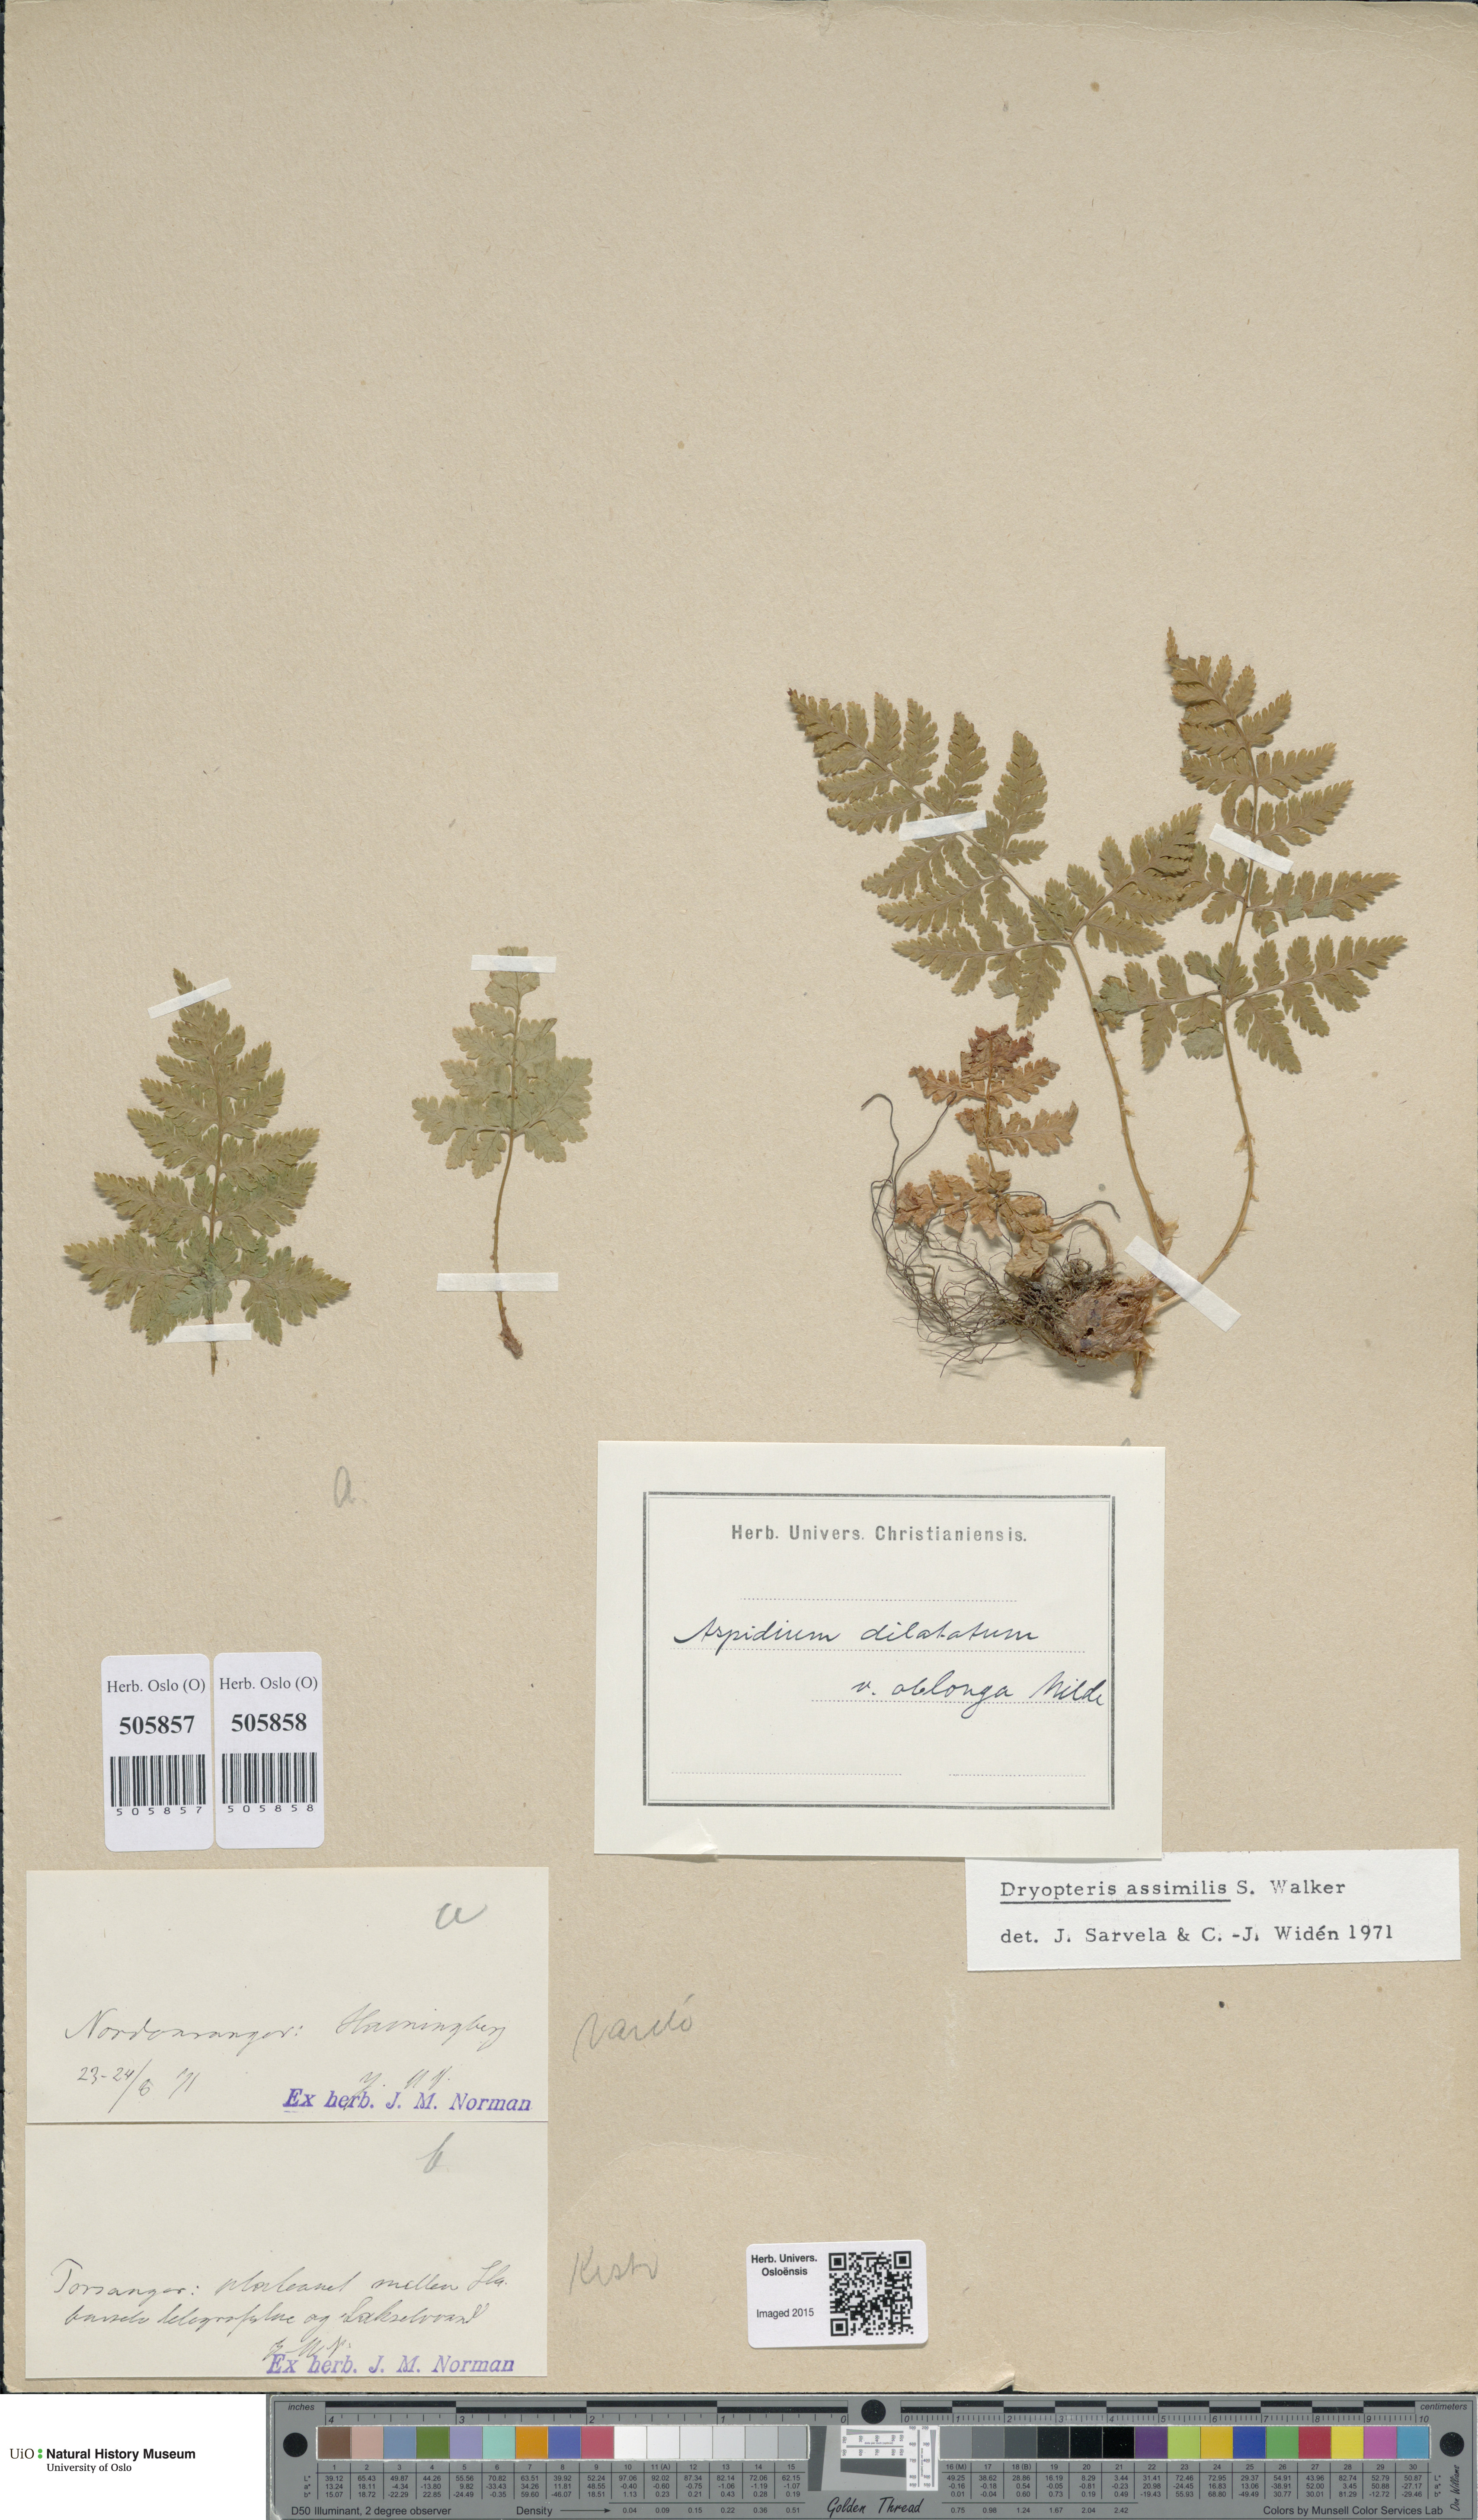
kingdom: Plantae
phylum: Tracheophyta
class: Polypodiopsida
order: Polypodiales
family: Dryopteridaceae
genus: Dryopteris
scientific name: Dryopteris expansa
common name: Northern buckler fern
